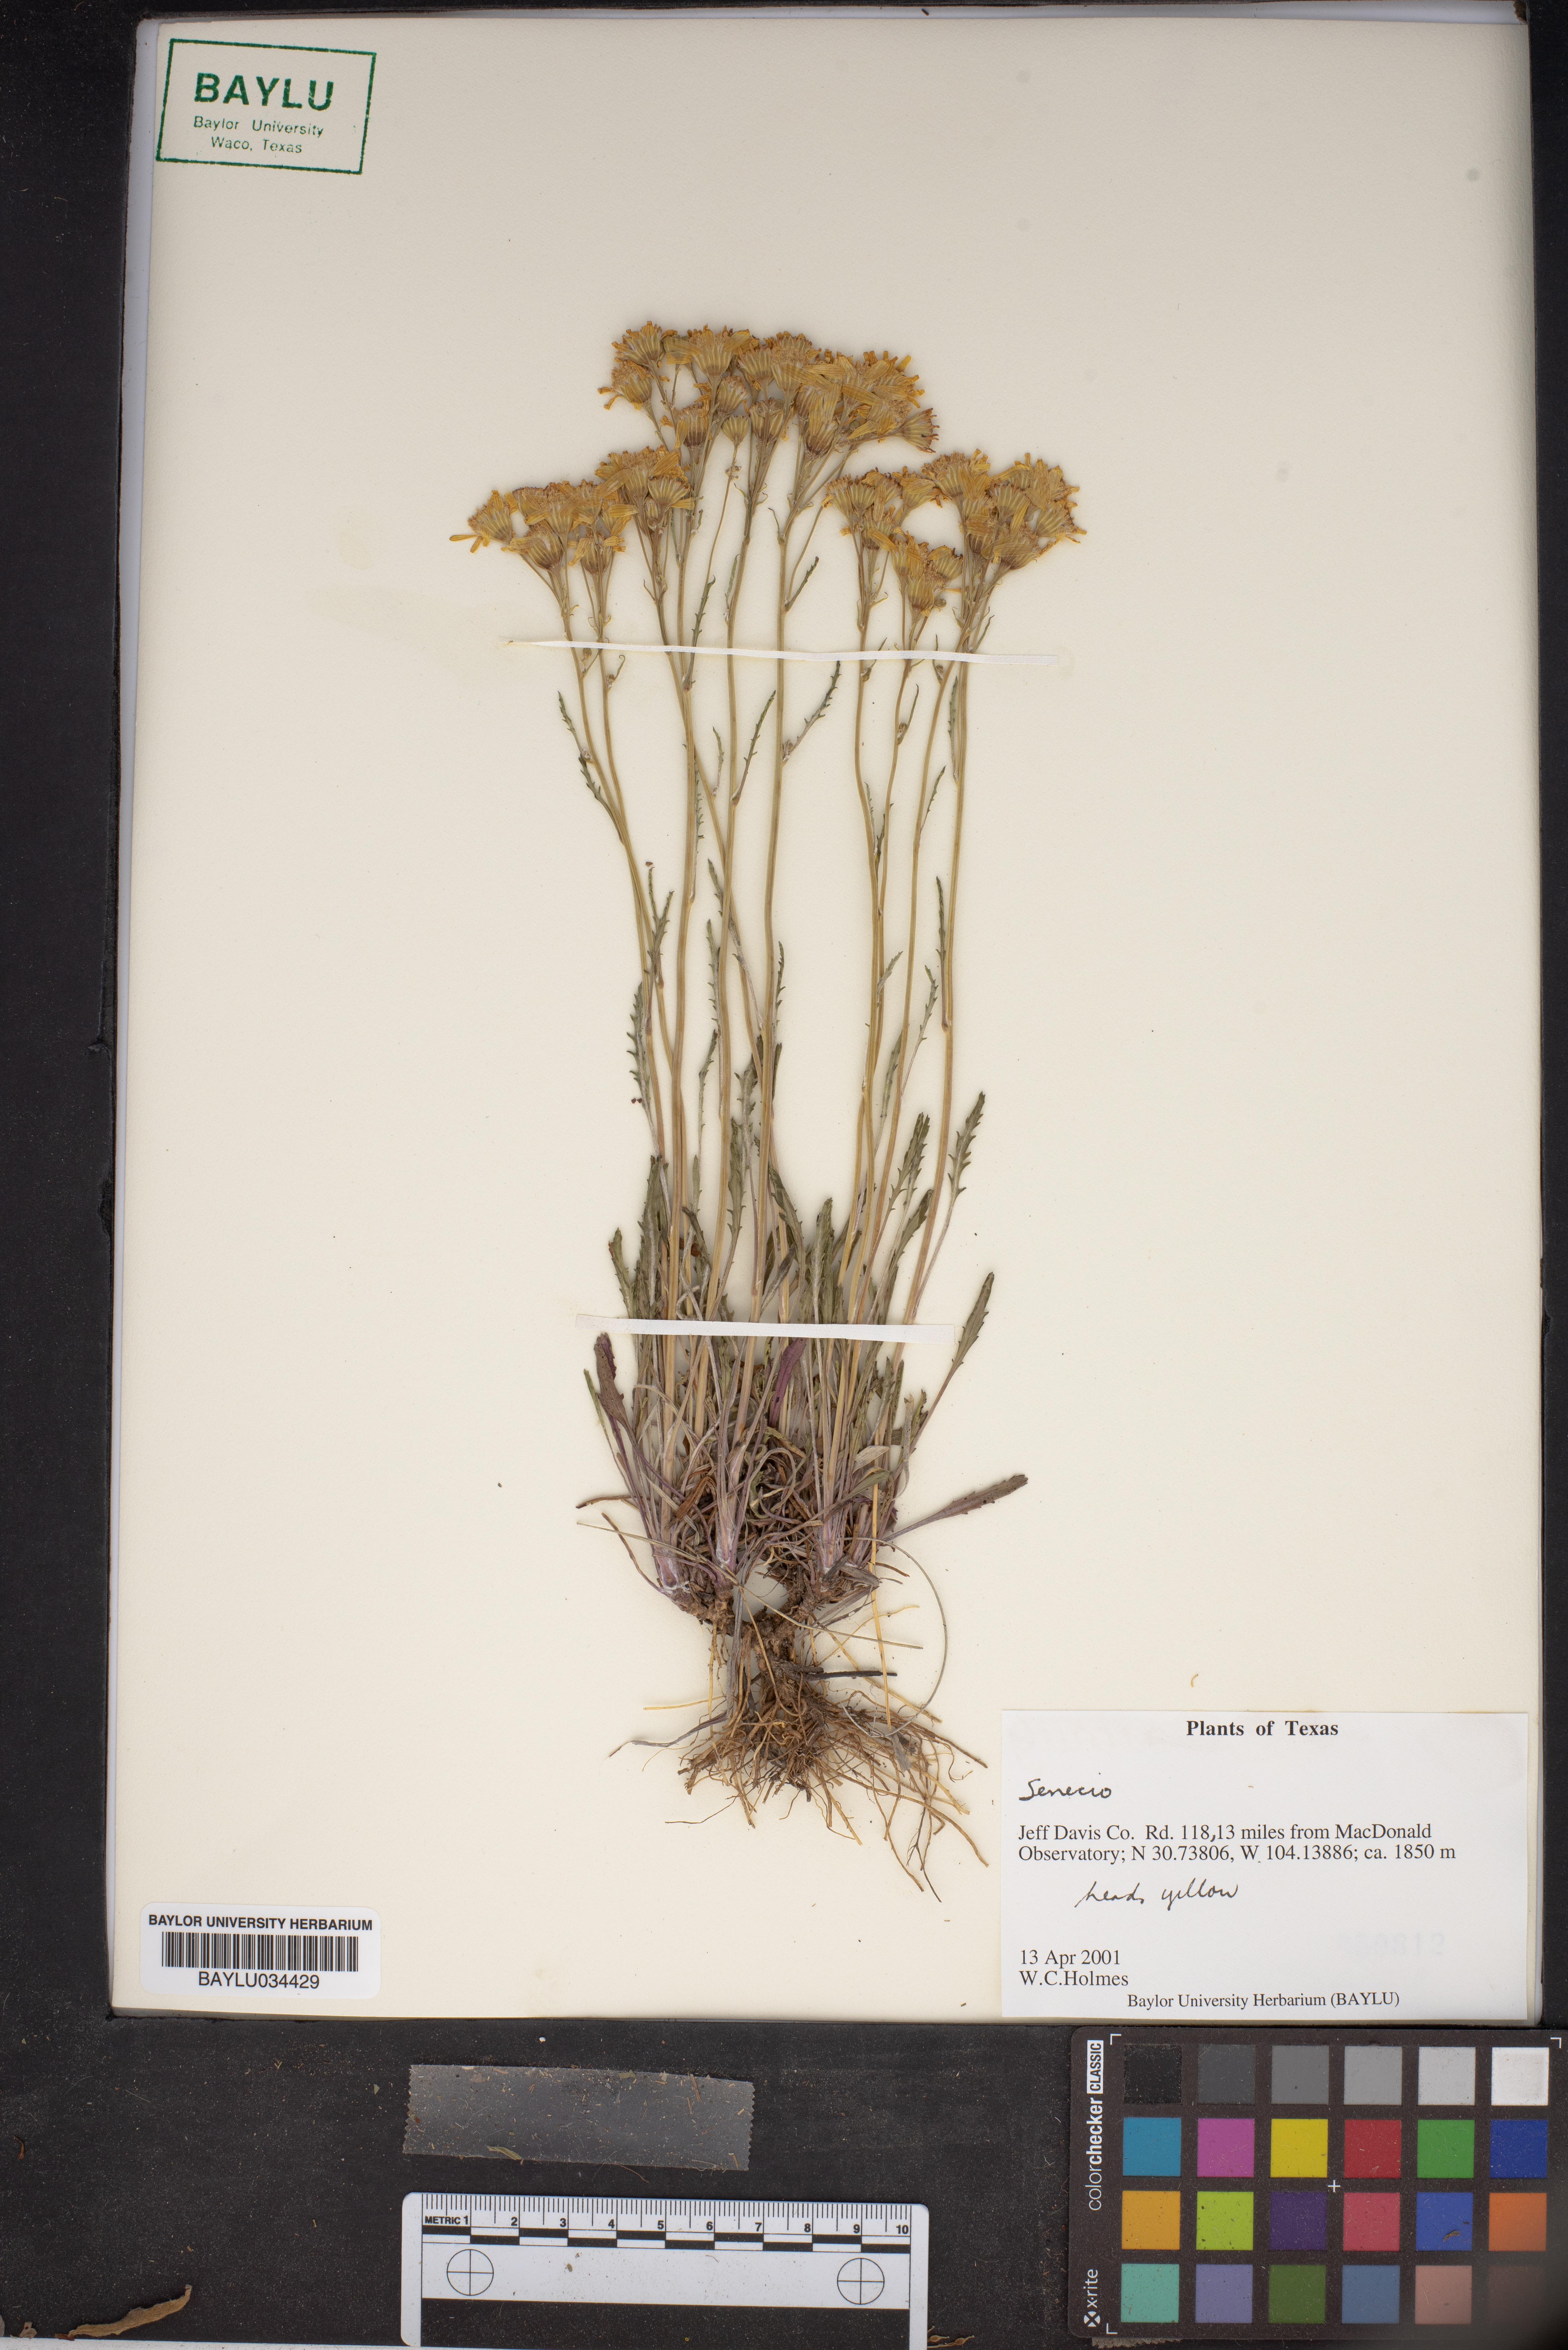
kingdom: Plantae
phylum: Tracheophyta
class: Magnoliopsida
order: Asterales
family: Asteraceae
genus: Senecio
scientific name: Senecio
